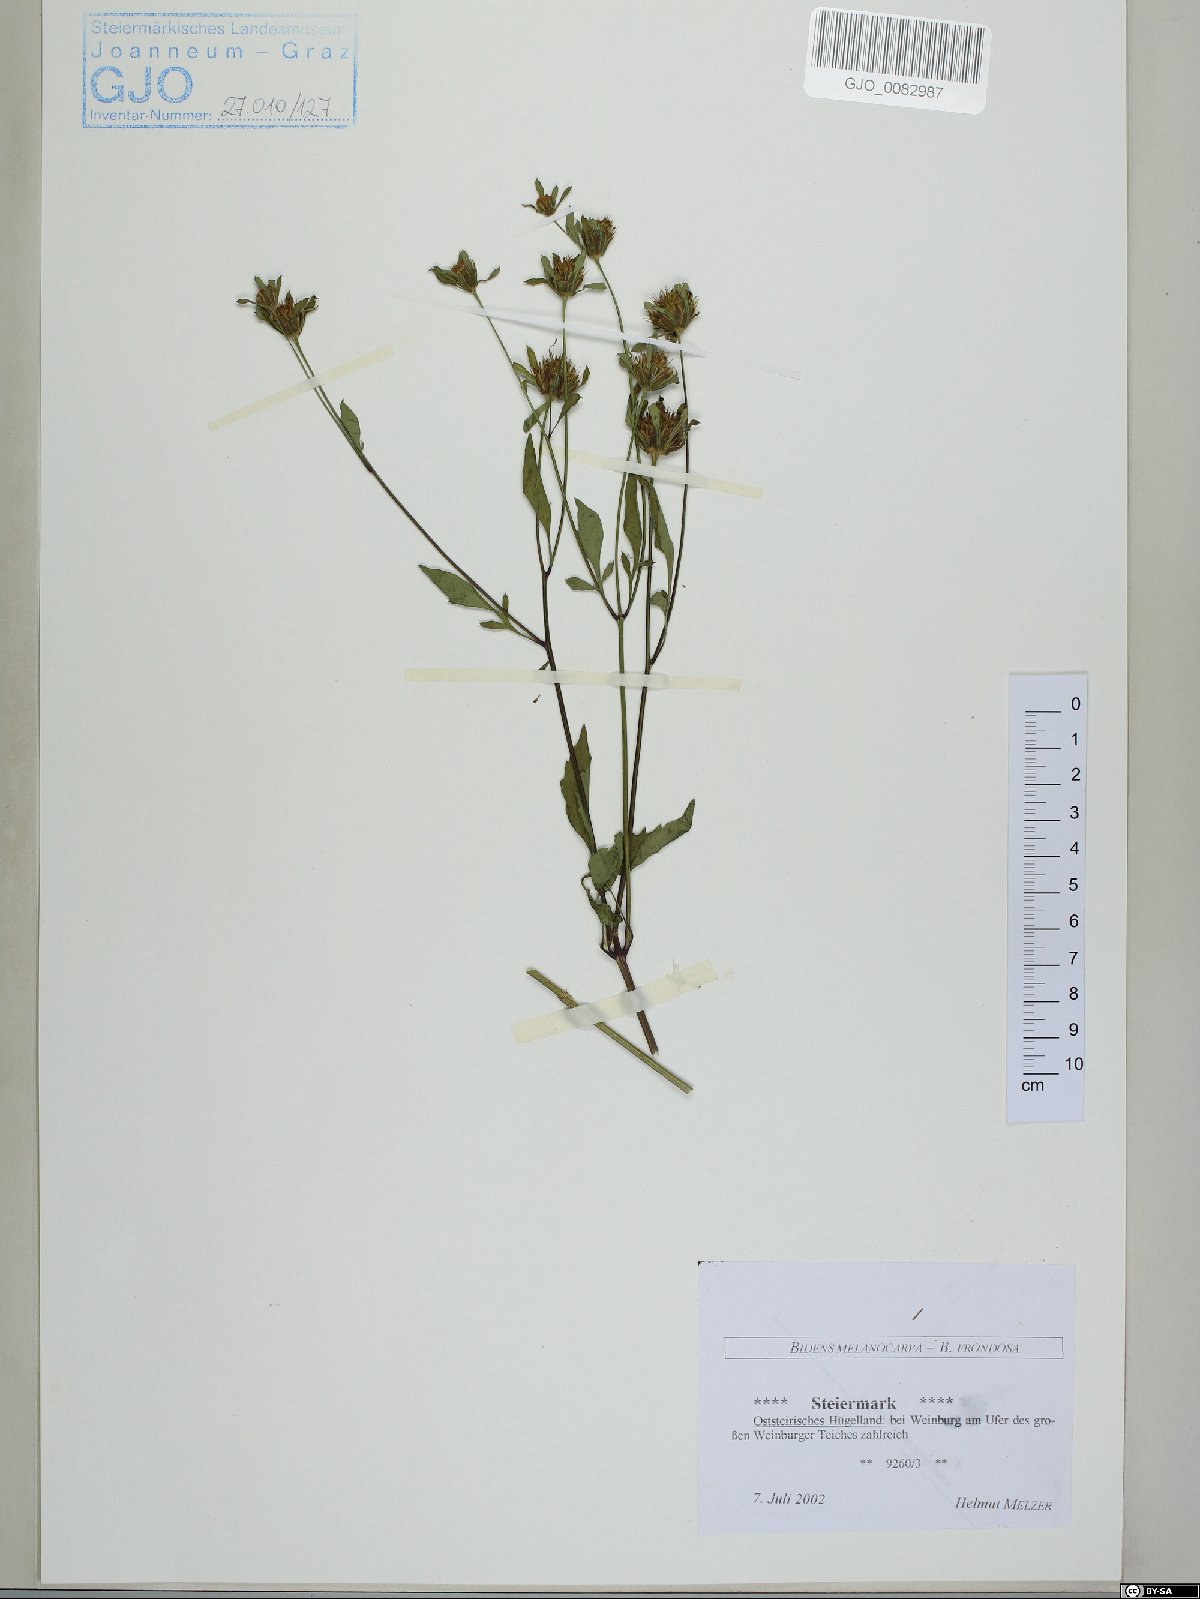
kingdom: Plantae
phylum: Tracheophyta
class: Magnoliopsida
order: Asterales
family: Asteraceae
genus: Bidens
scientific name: Bidens frondosa
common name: Beggarticks
